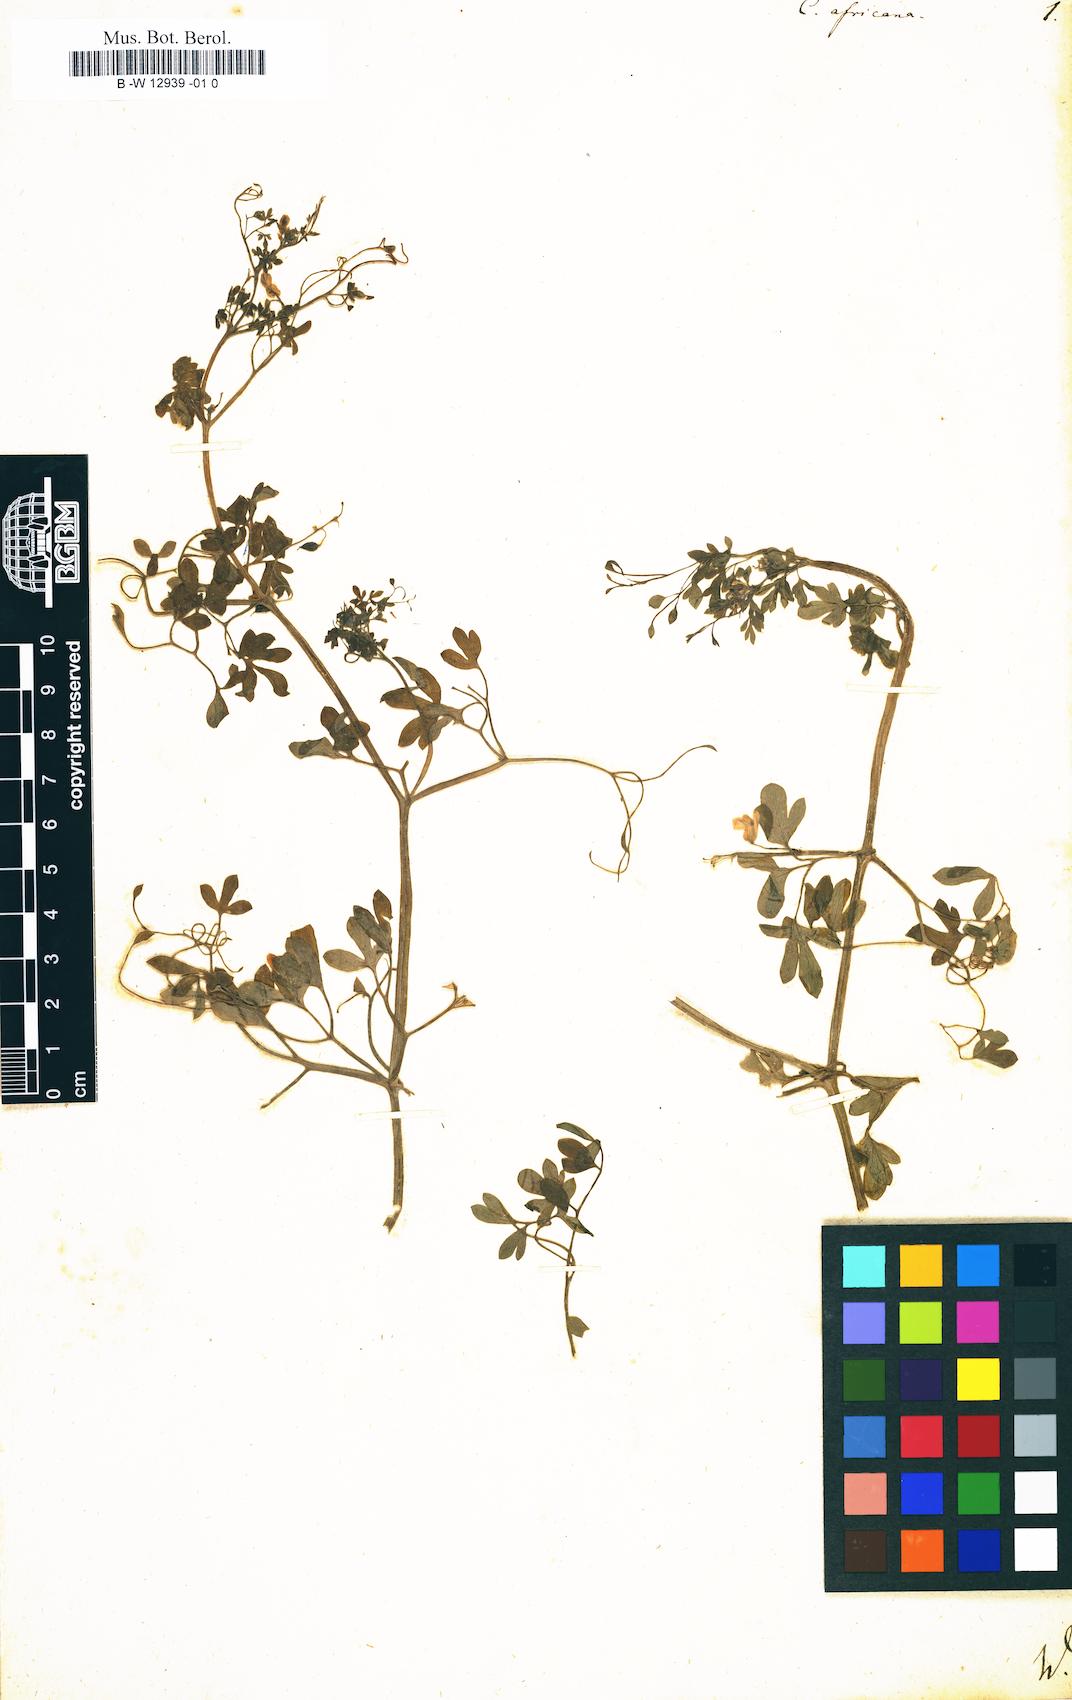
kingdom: Plantae
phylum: Tracheophyta
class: Magnoliopsida
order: Ranunculales
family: Papaveraceae
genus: Cysticapnos
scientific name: Cysticapnos vesicaria
